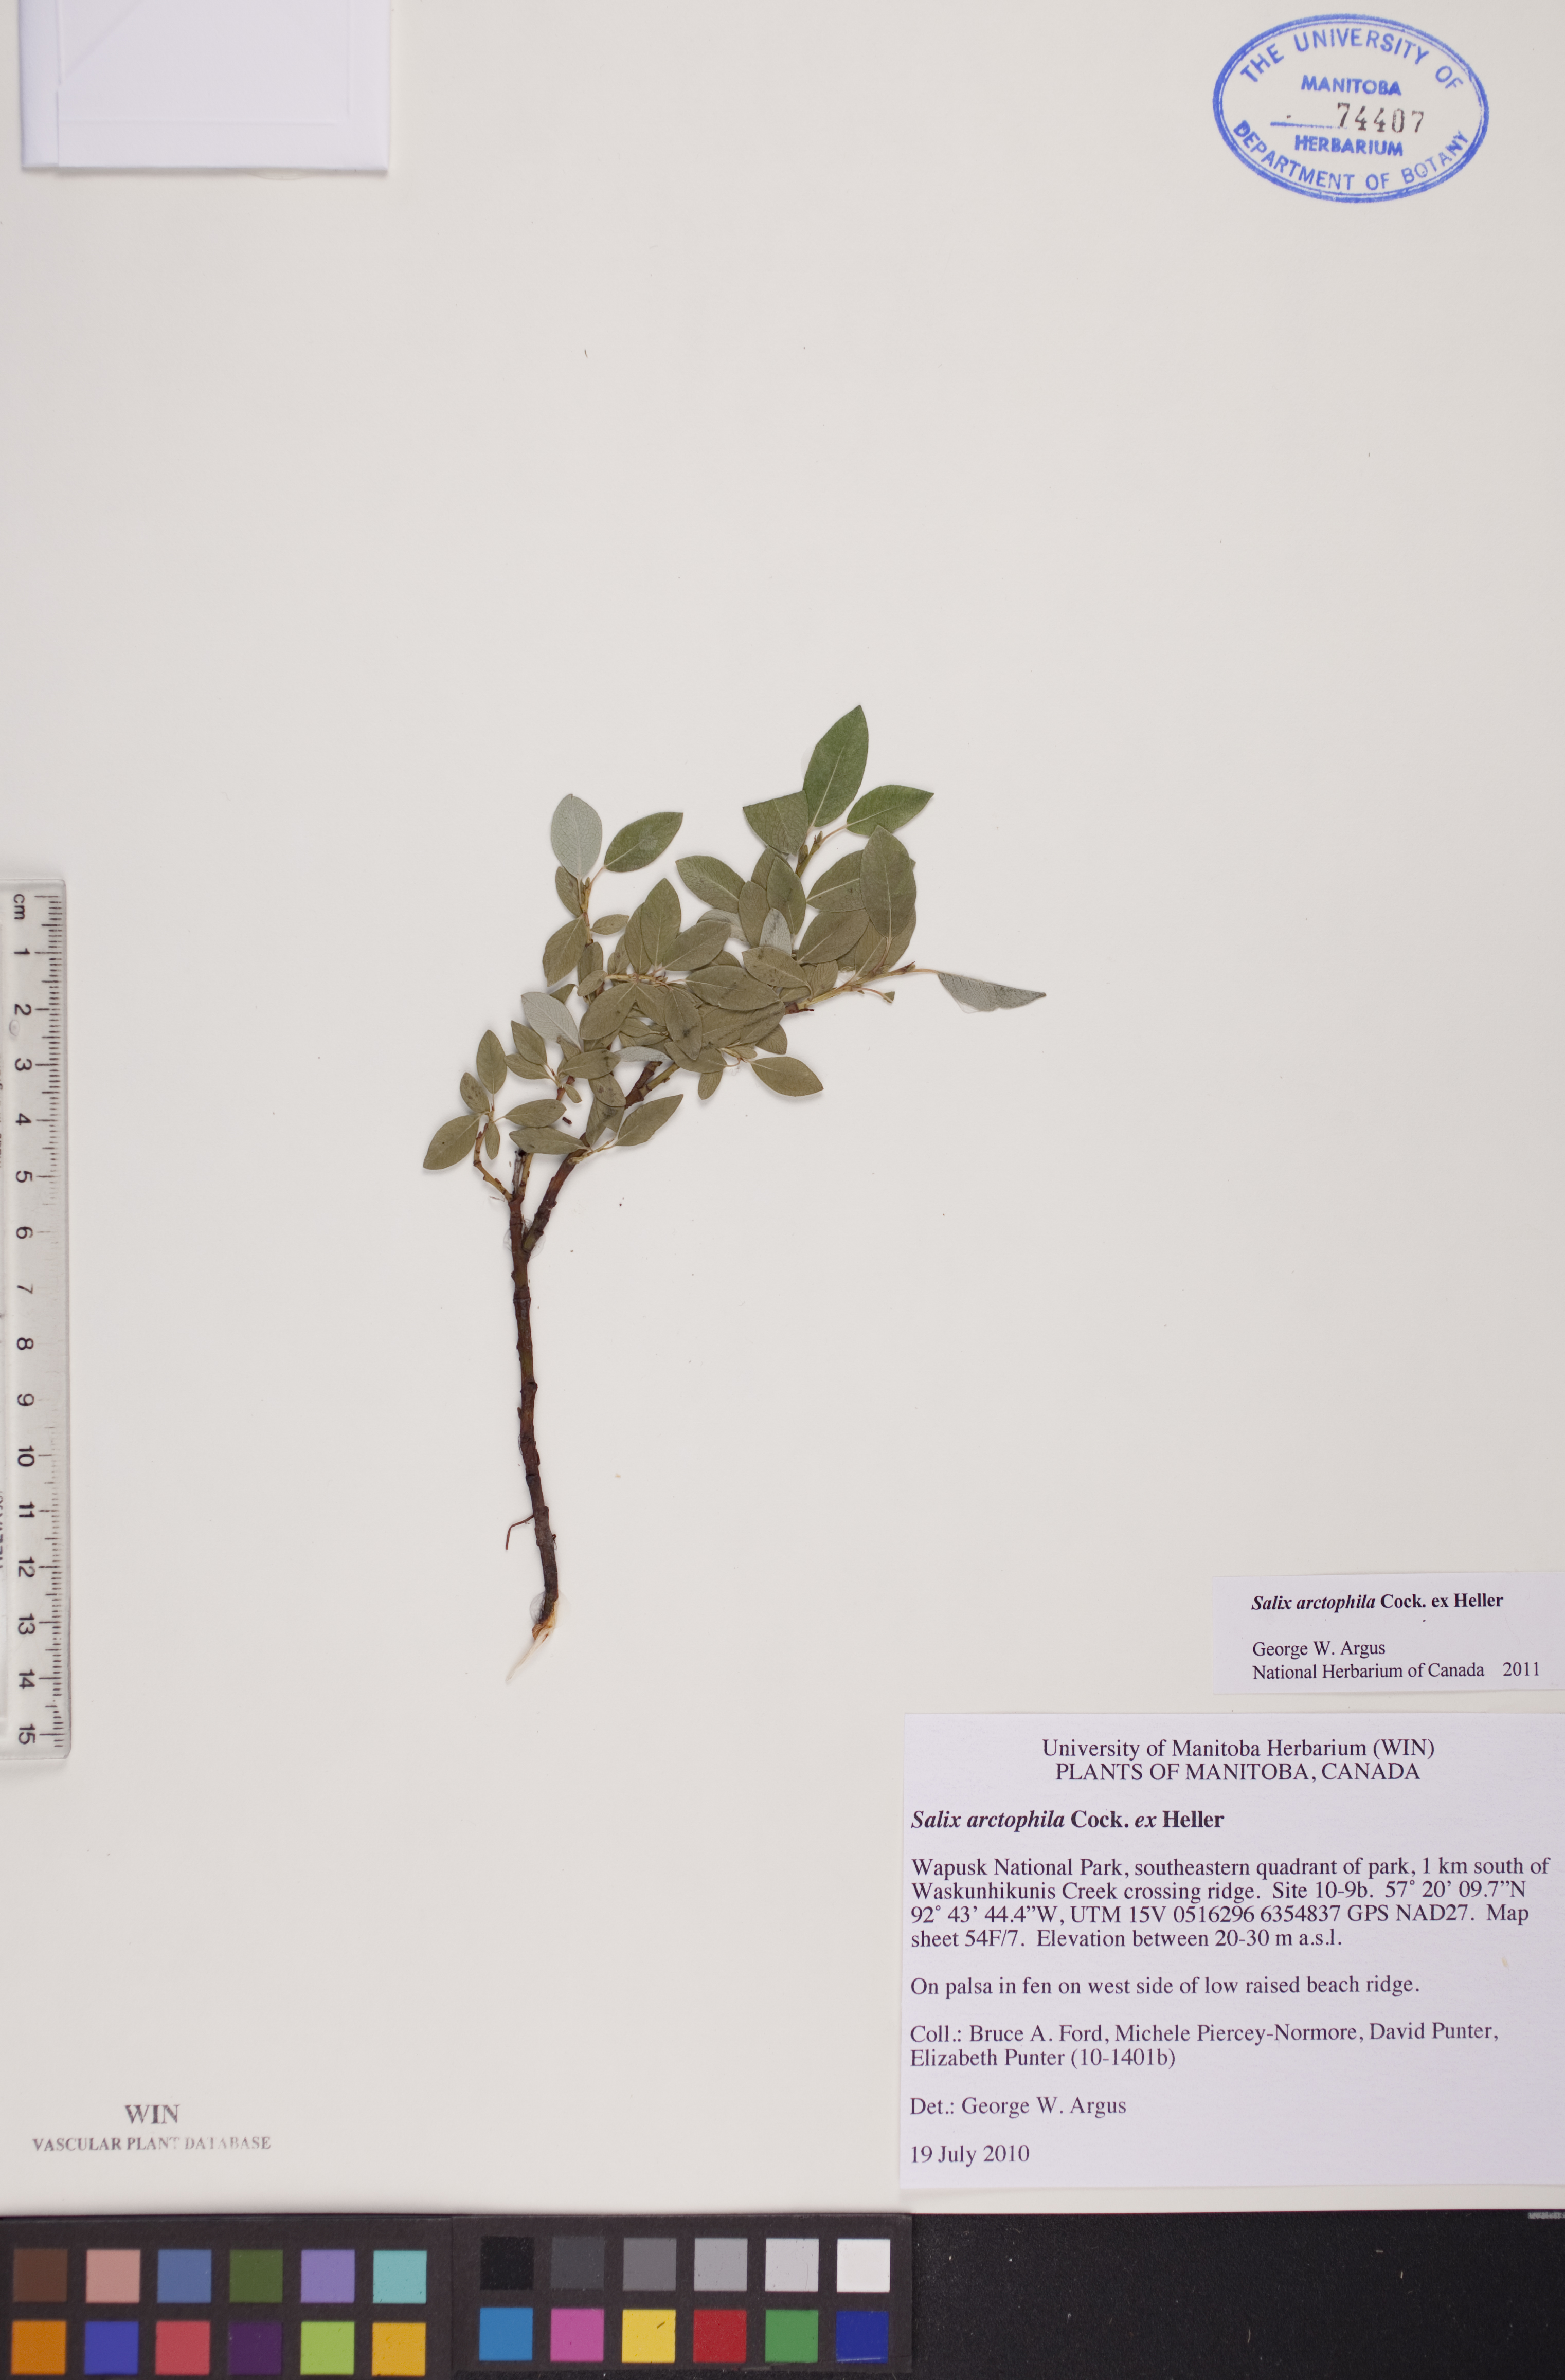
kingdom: Plantae
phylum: Tracheophyta
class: Magnoliopsida
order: Malpighiales
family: Salicaceae
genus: Salix
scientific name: Salix arctophila
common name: Greenland willow
